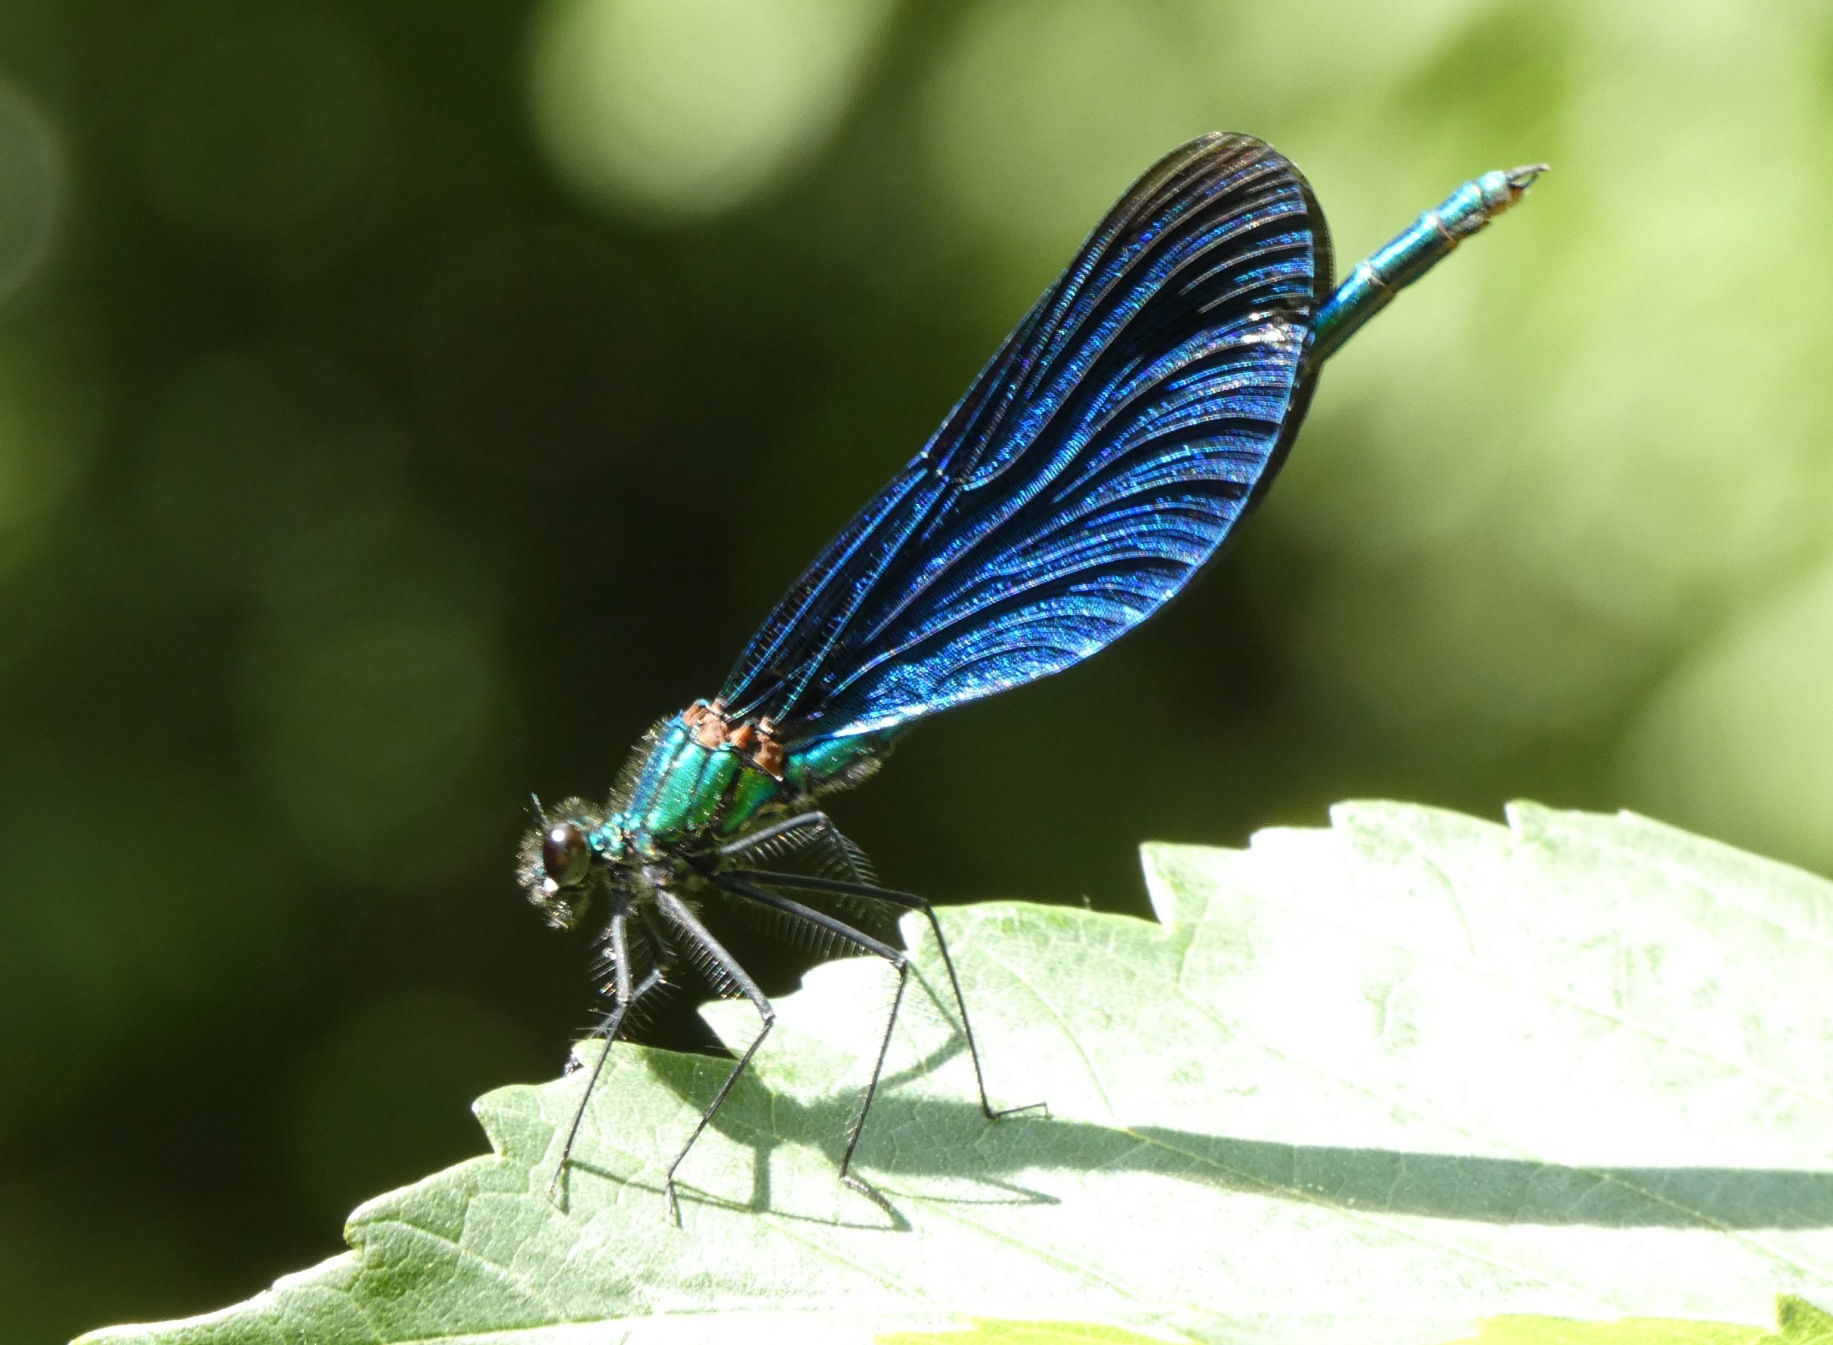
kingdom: Animalia
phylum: Arthropoda
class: Insecta
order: Odonata
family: Calopterygidae
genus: Calopteryx
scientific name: Calopteryx virgo
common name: Blåvinget pragtvandnymfe
